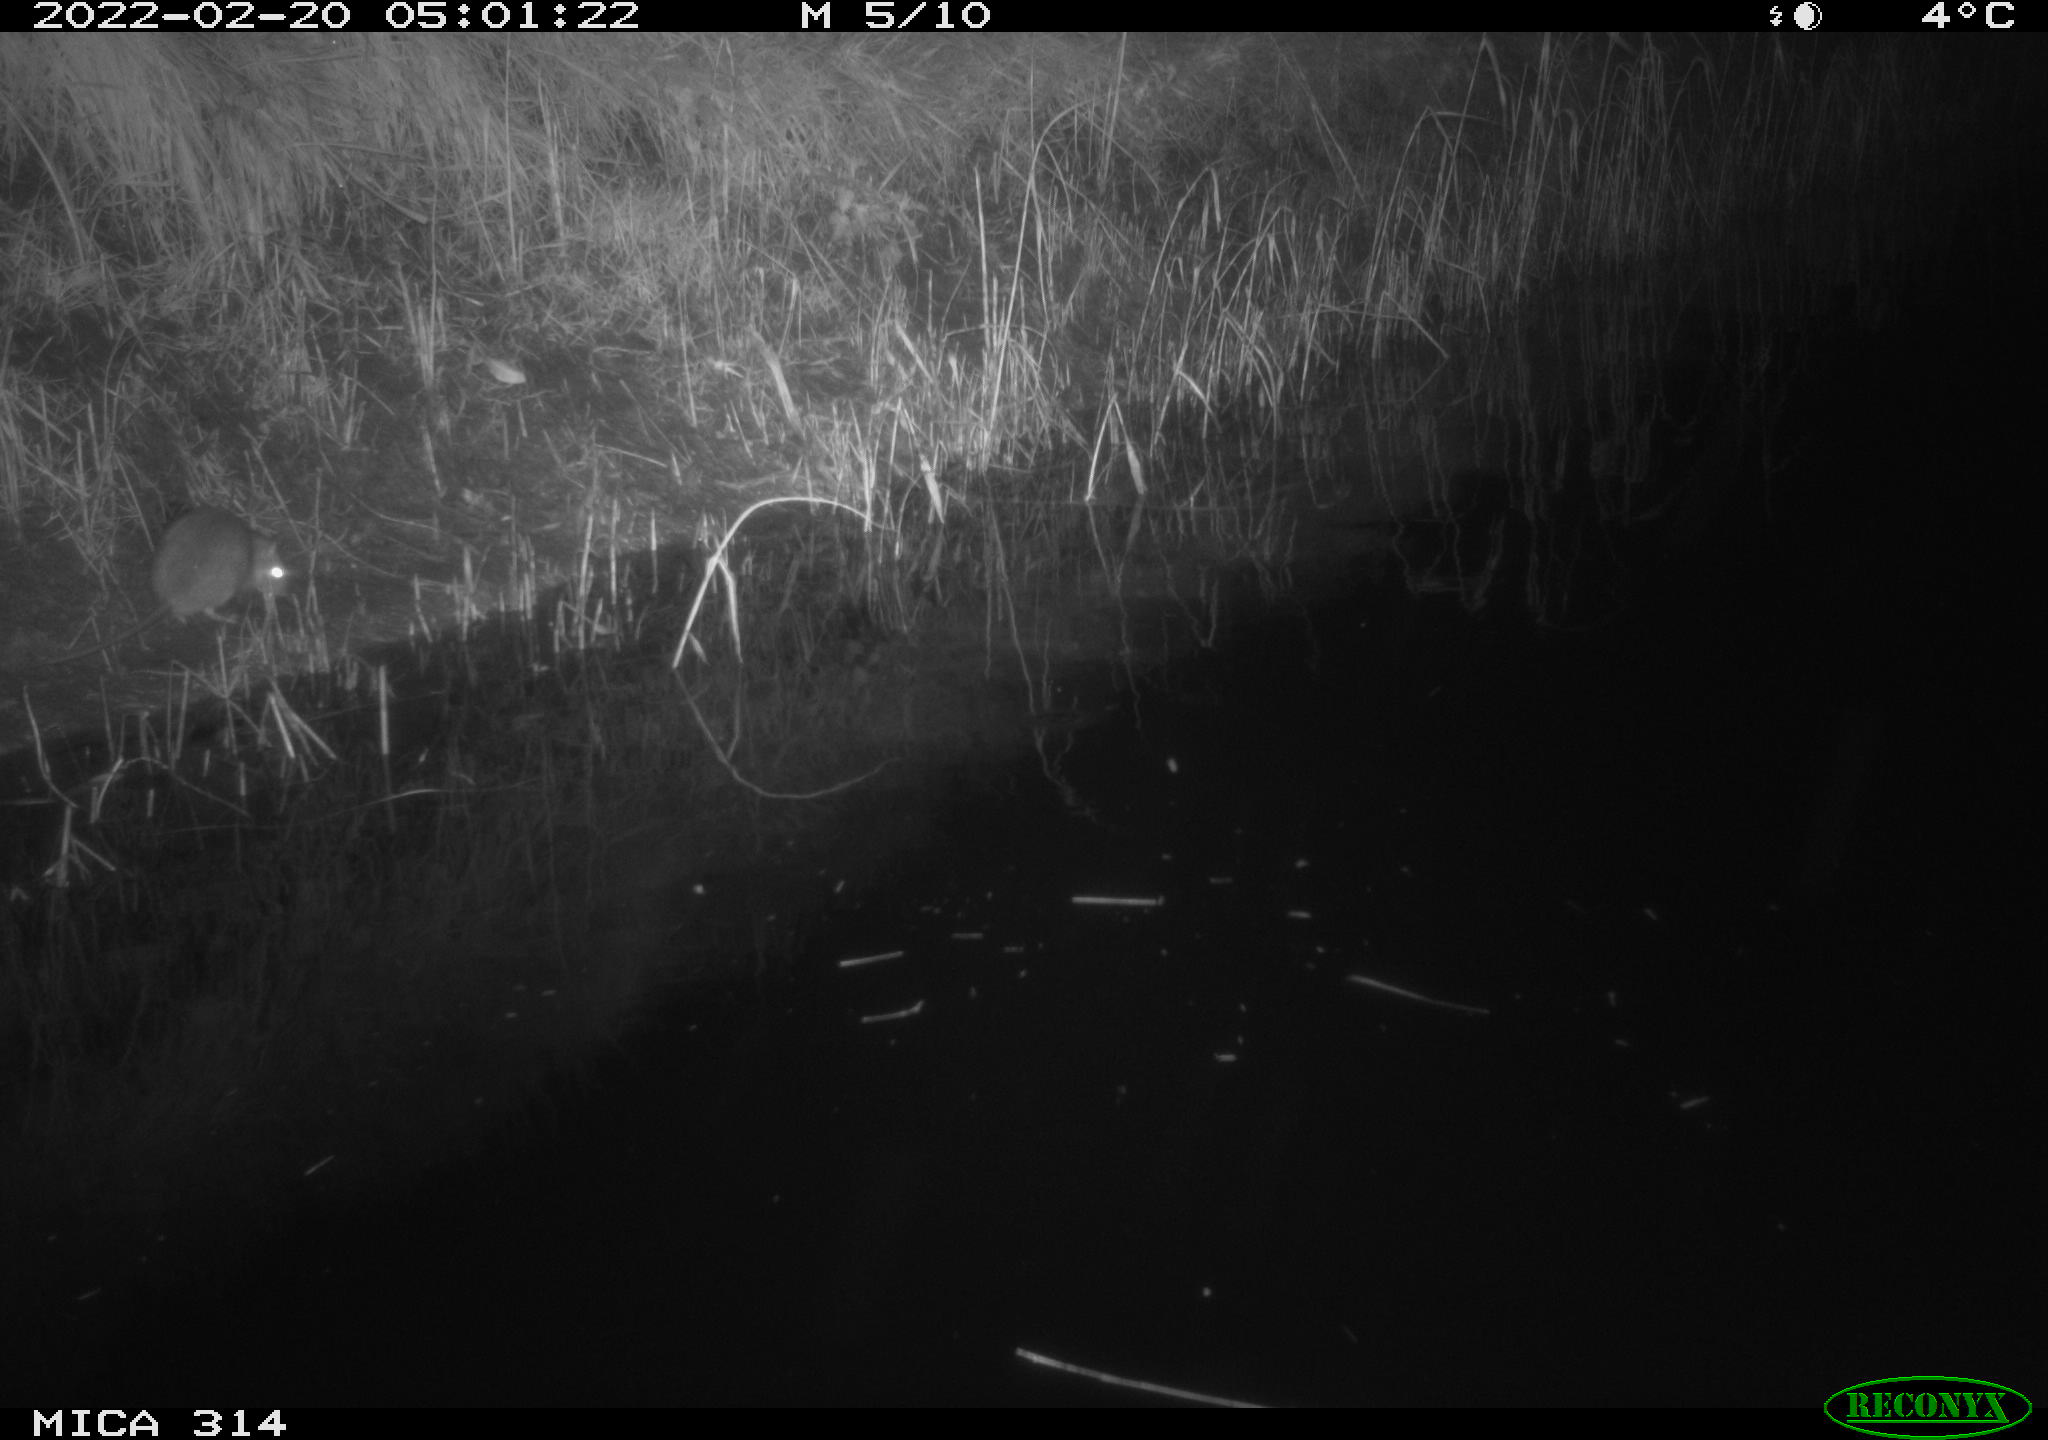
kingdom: Animalia
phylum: Chordata
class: Mammalia
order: Rodentia
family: Muridae
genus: Rattus
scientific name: Rattus norvegicus
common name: Brown rat
